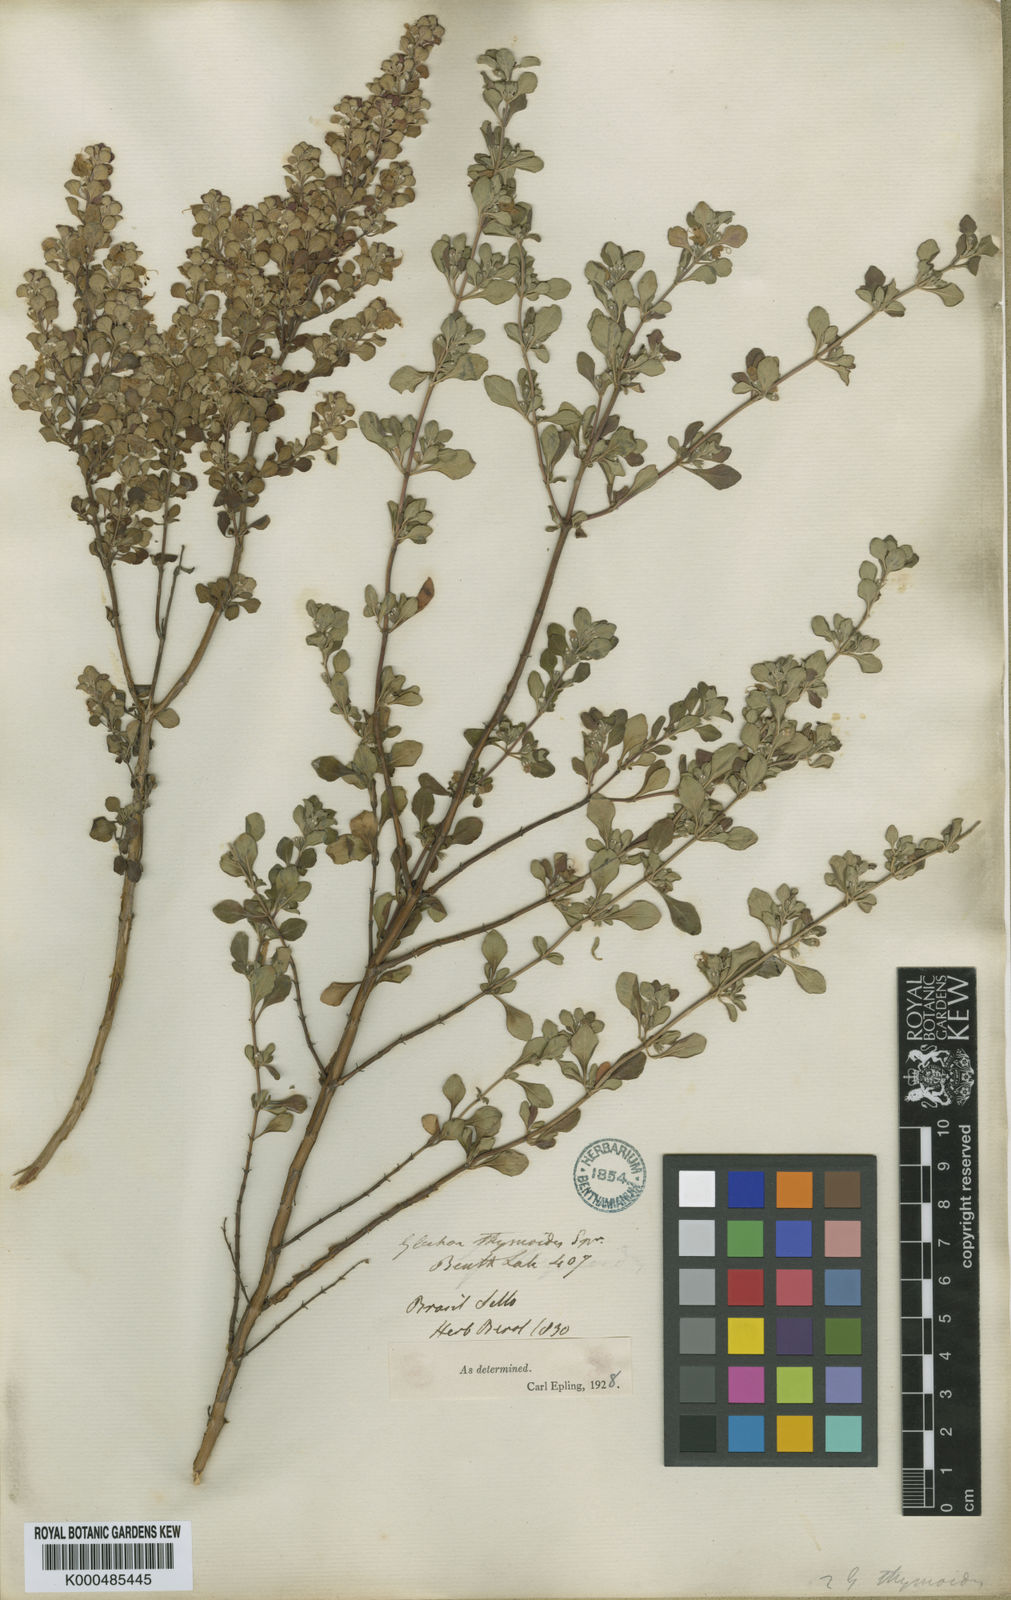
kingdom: Plantae
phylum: Tracheophyta
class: Magnoliopsida
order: Lamiales
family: Lamiaceae
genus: Glechon
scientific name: Glechon thymoides
